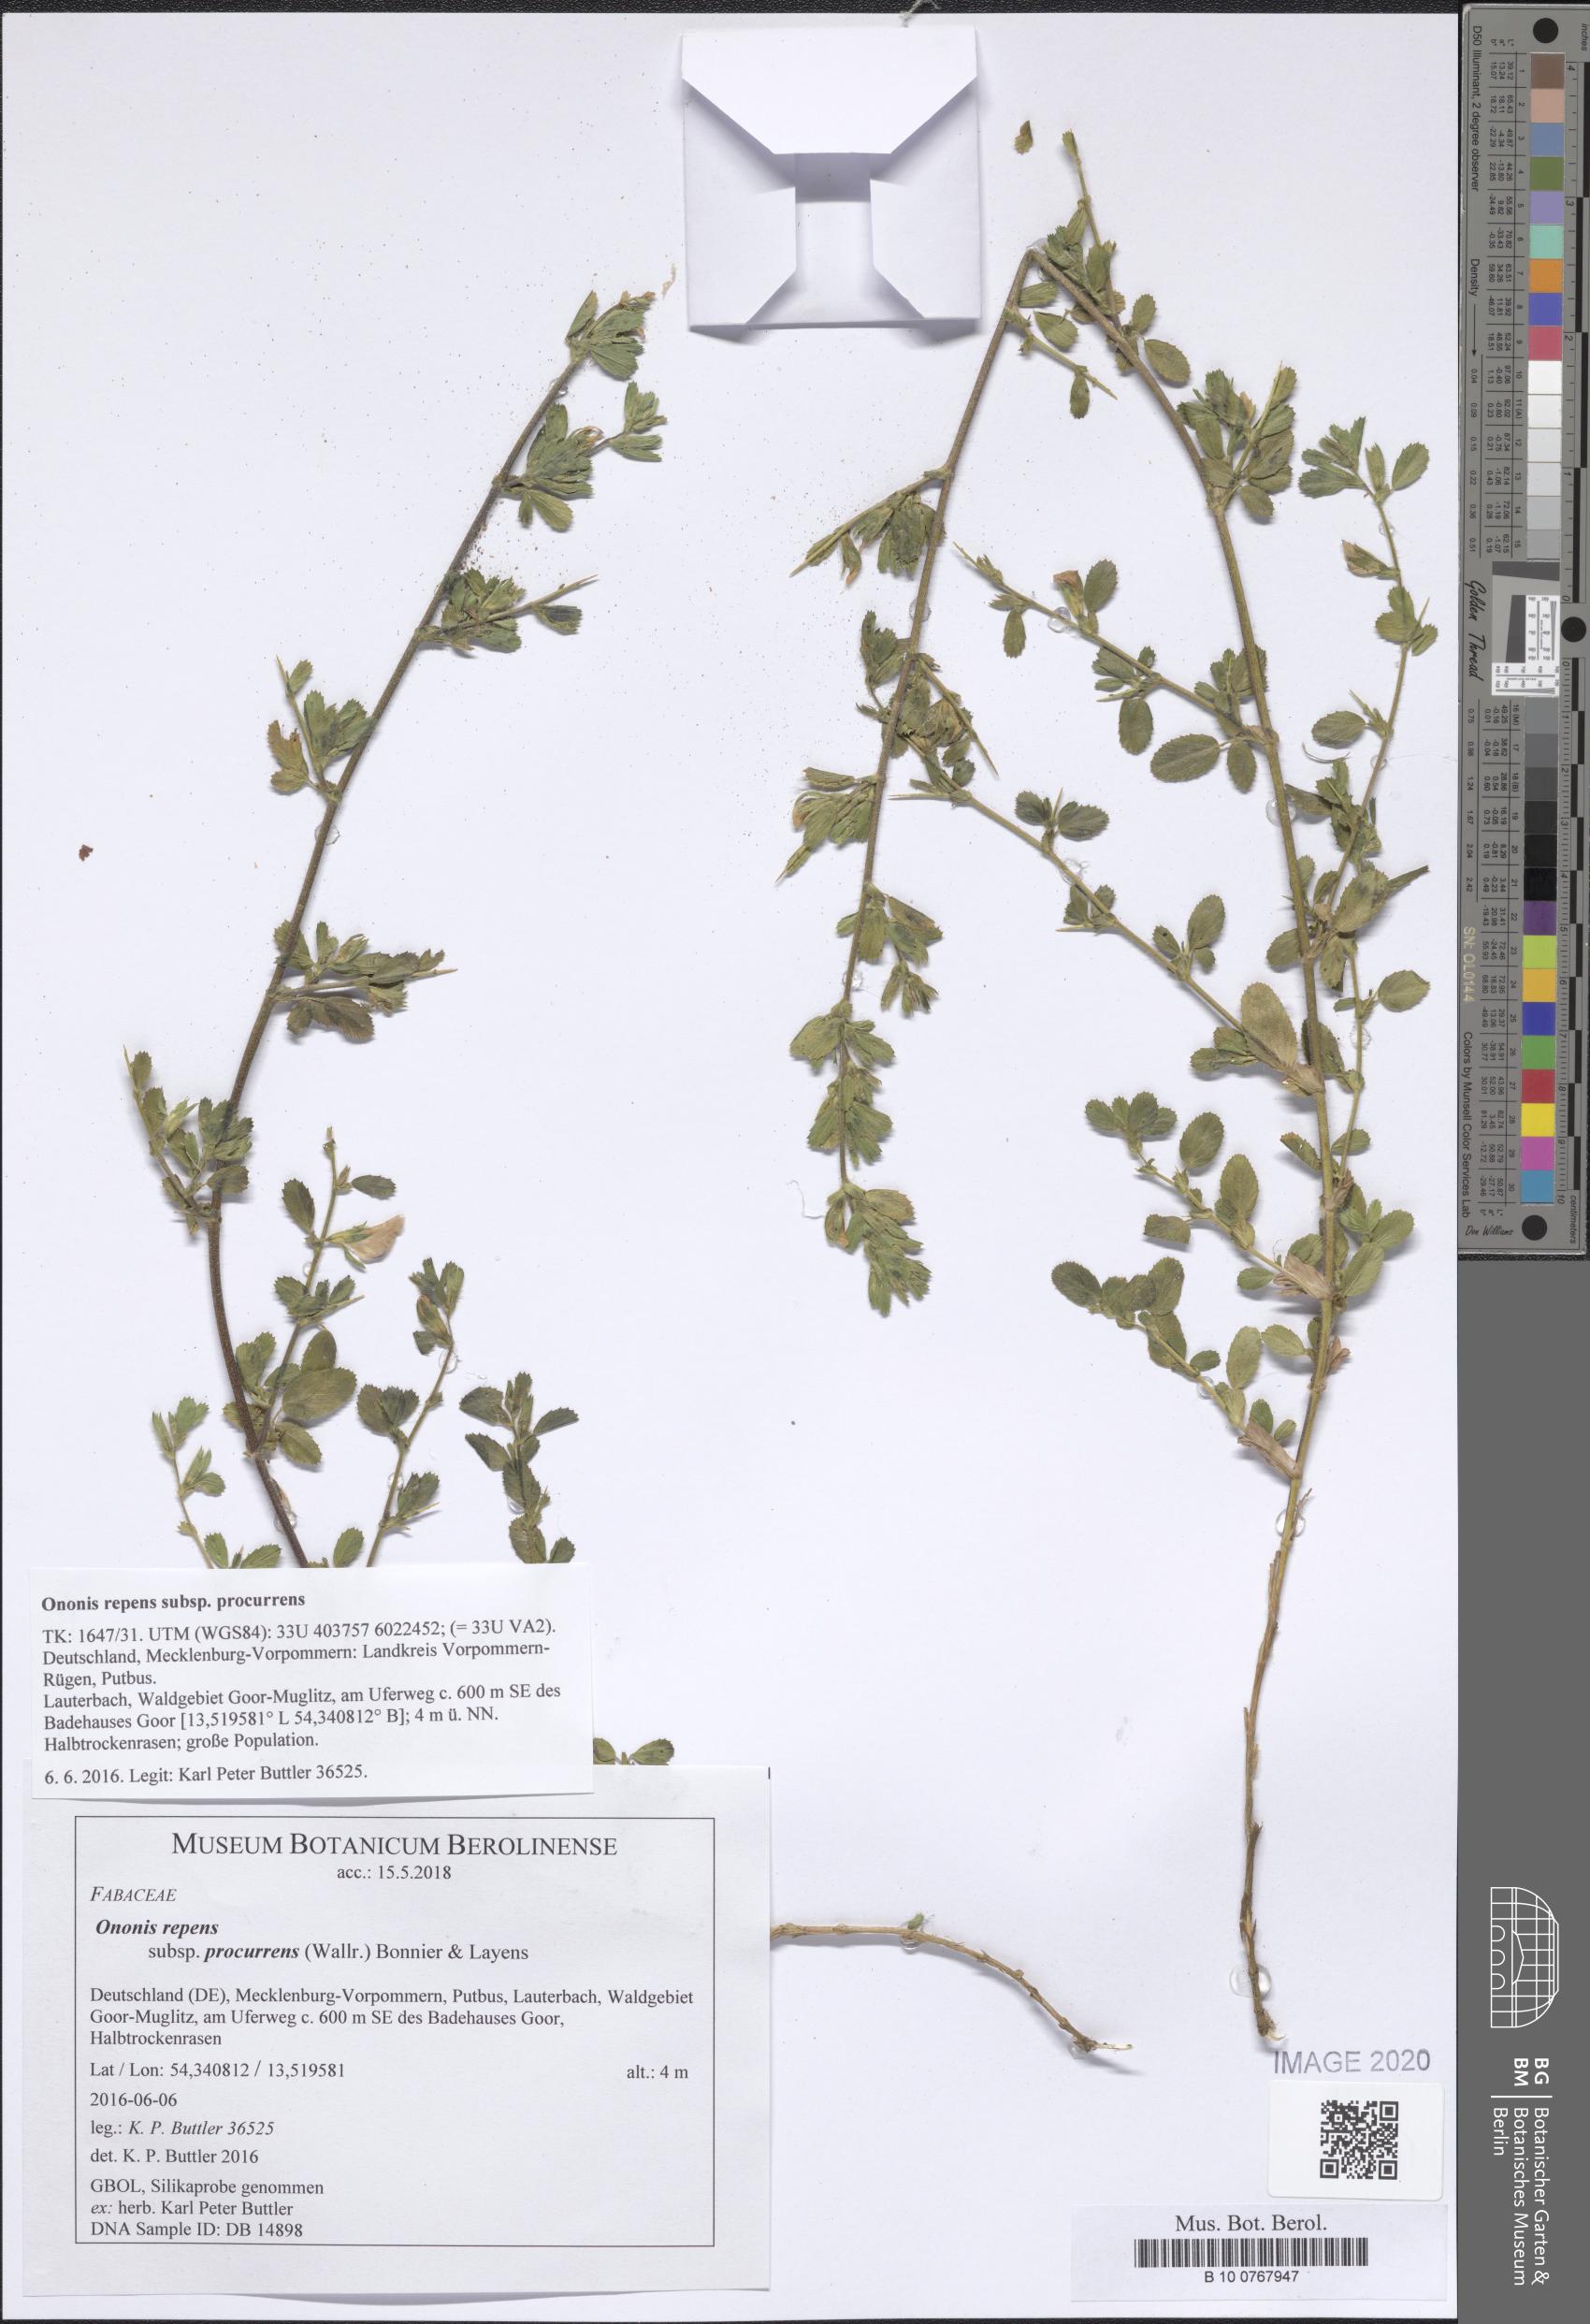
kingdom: Plantae
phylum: Tracheophyta
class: Magnoliopsida
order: Fabales
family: Fabaceae
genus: Ononis
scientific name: Ononis spinosa
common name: Spiny restharrow
